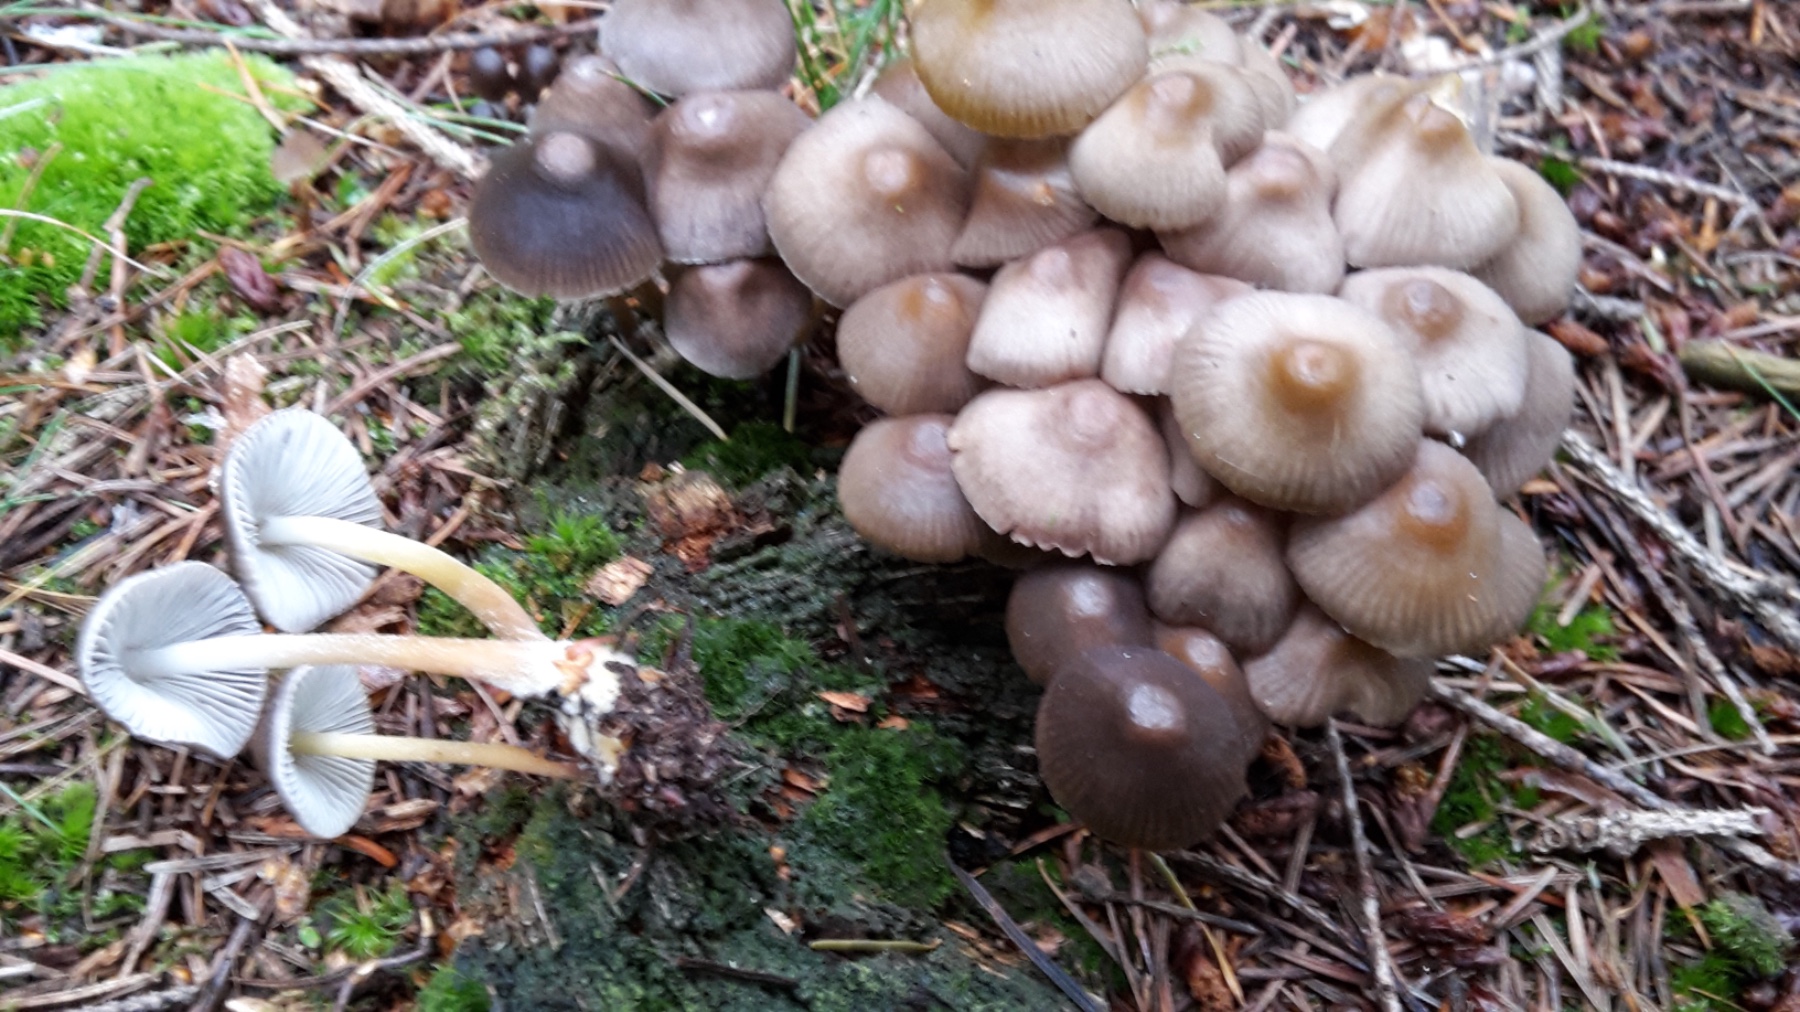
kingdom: Fungi
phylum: Basidiomycota
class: Agaricomycetes
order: Agaricales
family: Mycenaceae
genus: Mycena
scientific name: Mycena inclinata
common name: nikkende huesvamp
